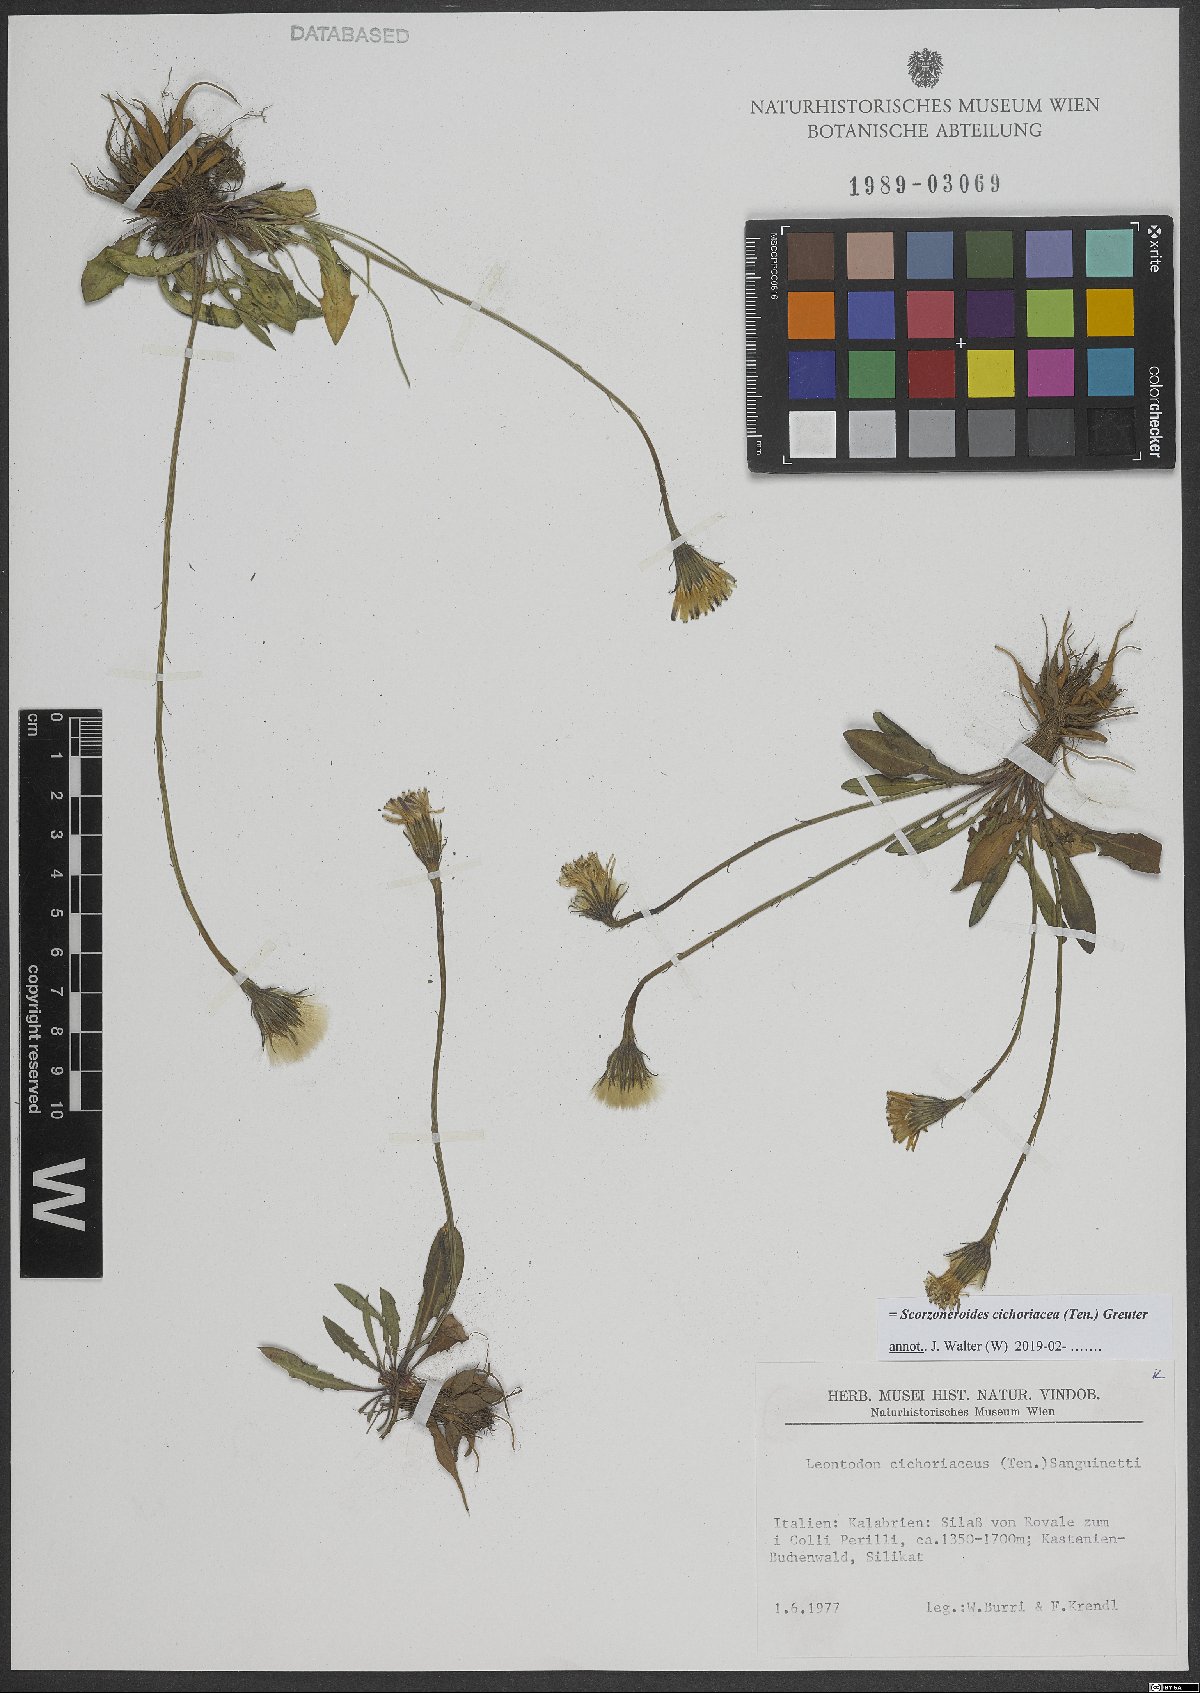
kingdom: Plantae
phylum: Tracheophyta
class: Magnoliopsida
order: Asterales
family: Asteraceae
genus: Scorzoneroides
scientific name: Scorzoneroides cichoriacea
